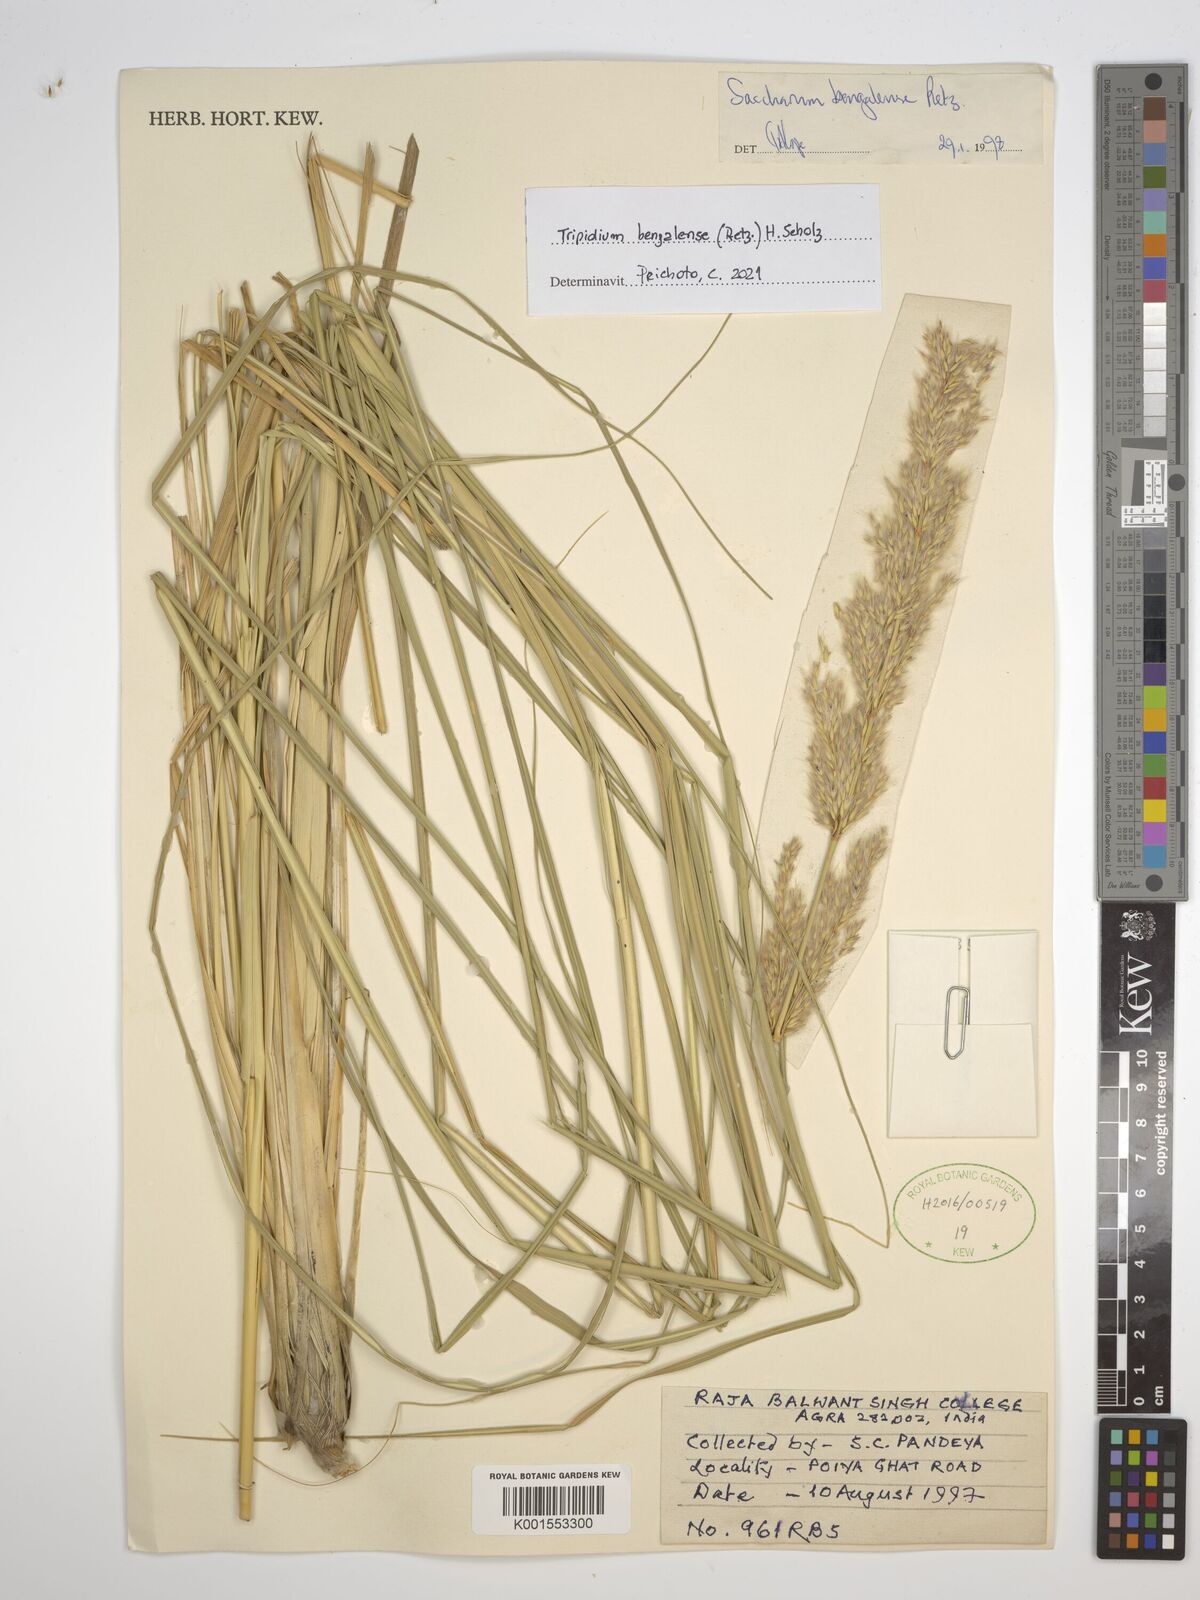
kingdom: Plantae
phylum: Tracheophyta
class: Liliopsida
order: Poales
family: Poaceae
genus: Tripidium
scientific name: Tripidium bengalense
